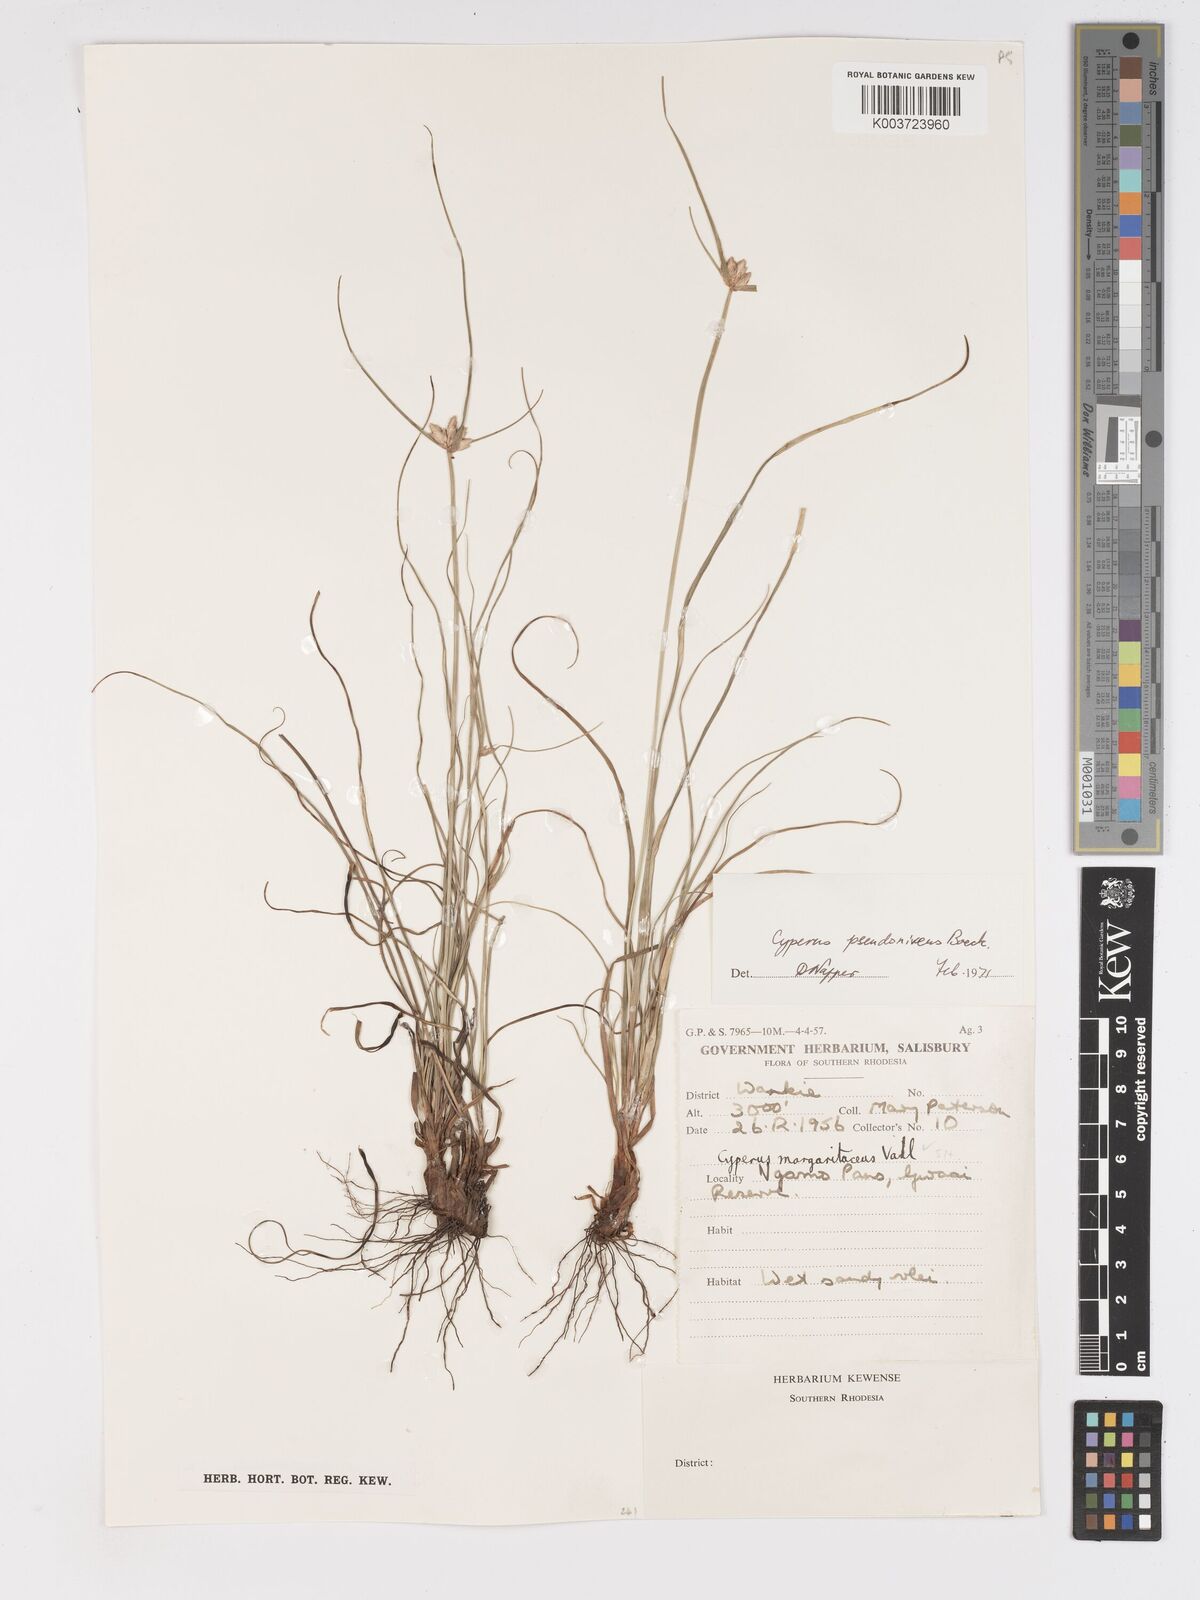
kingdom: Plantae
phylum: Tracheophyta
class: Liliopsida
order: Poales
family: Cyperaceae
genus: Cyperus
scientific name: Cyperus margaritaceus
